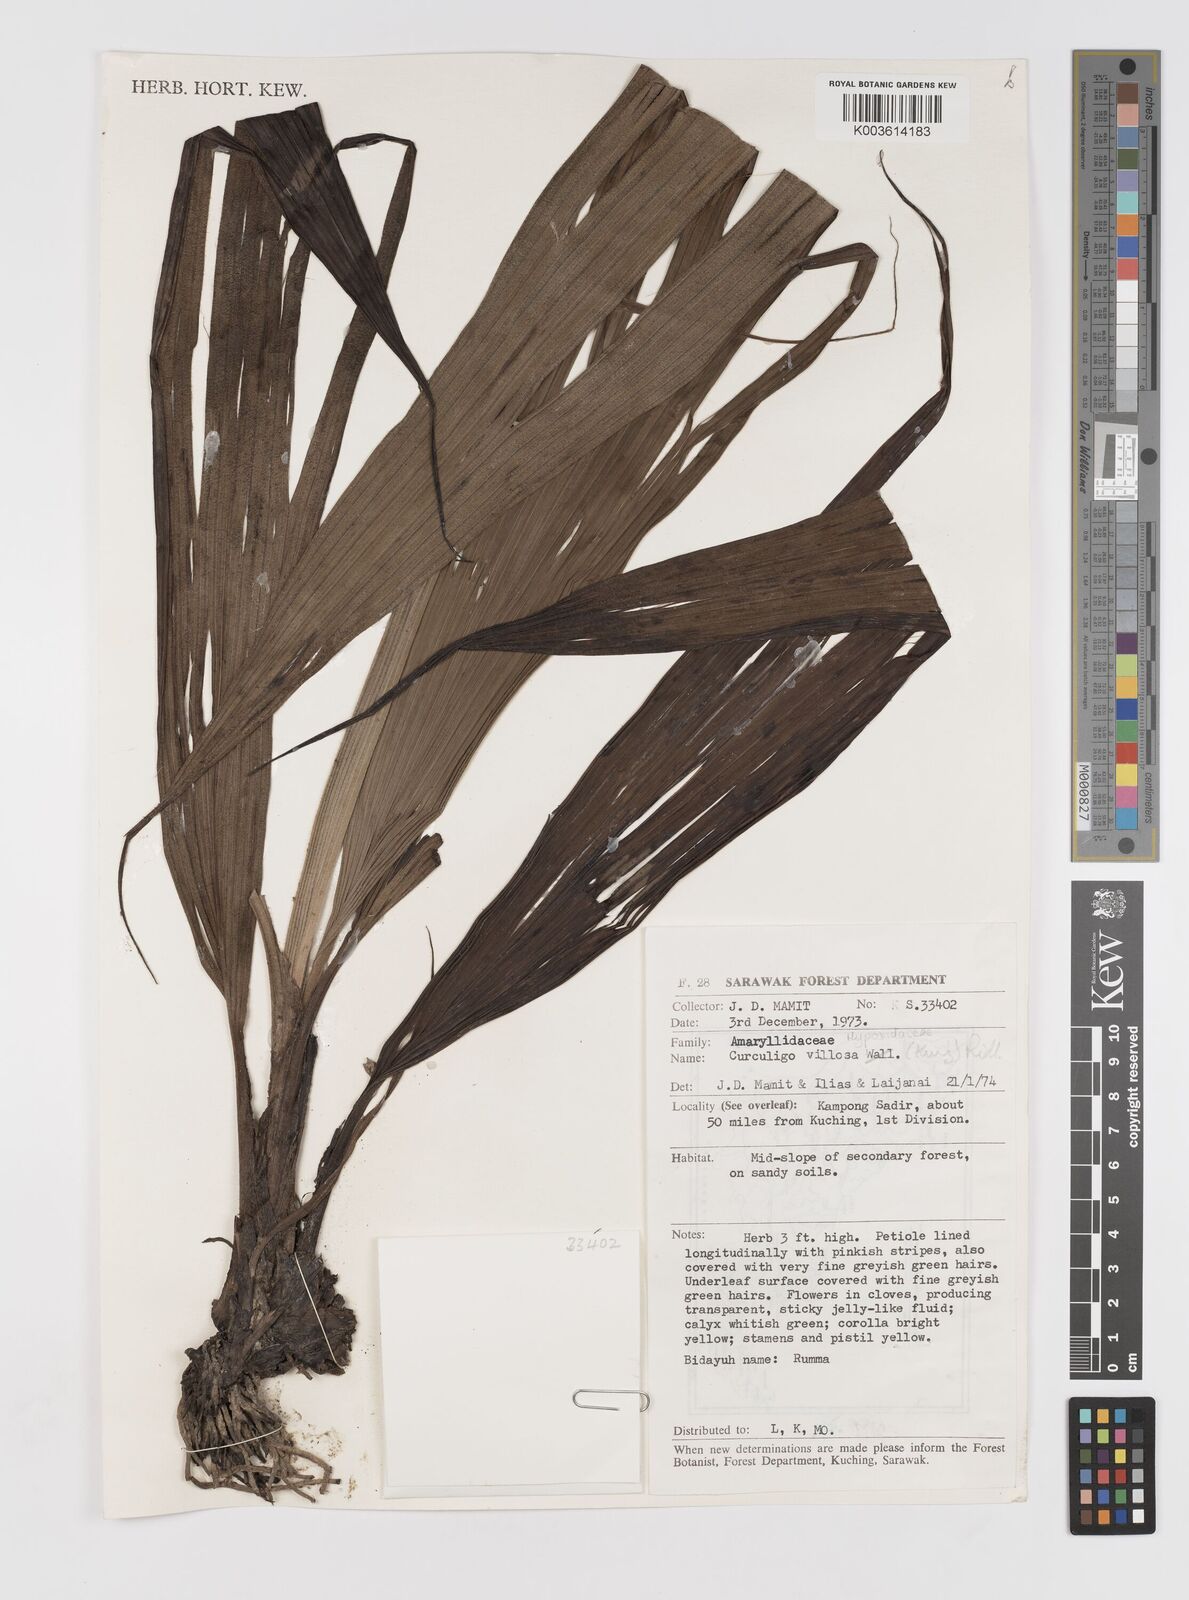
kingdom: Plantae
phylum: Tracheophyta
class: Liliopsida
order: Asparagales
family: Hypoxidaceae
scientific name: Hypoxidaceae
